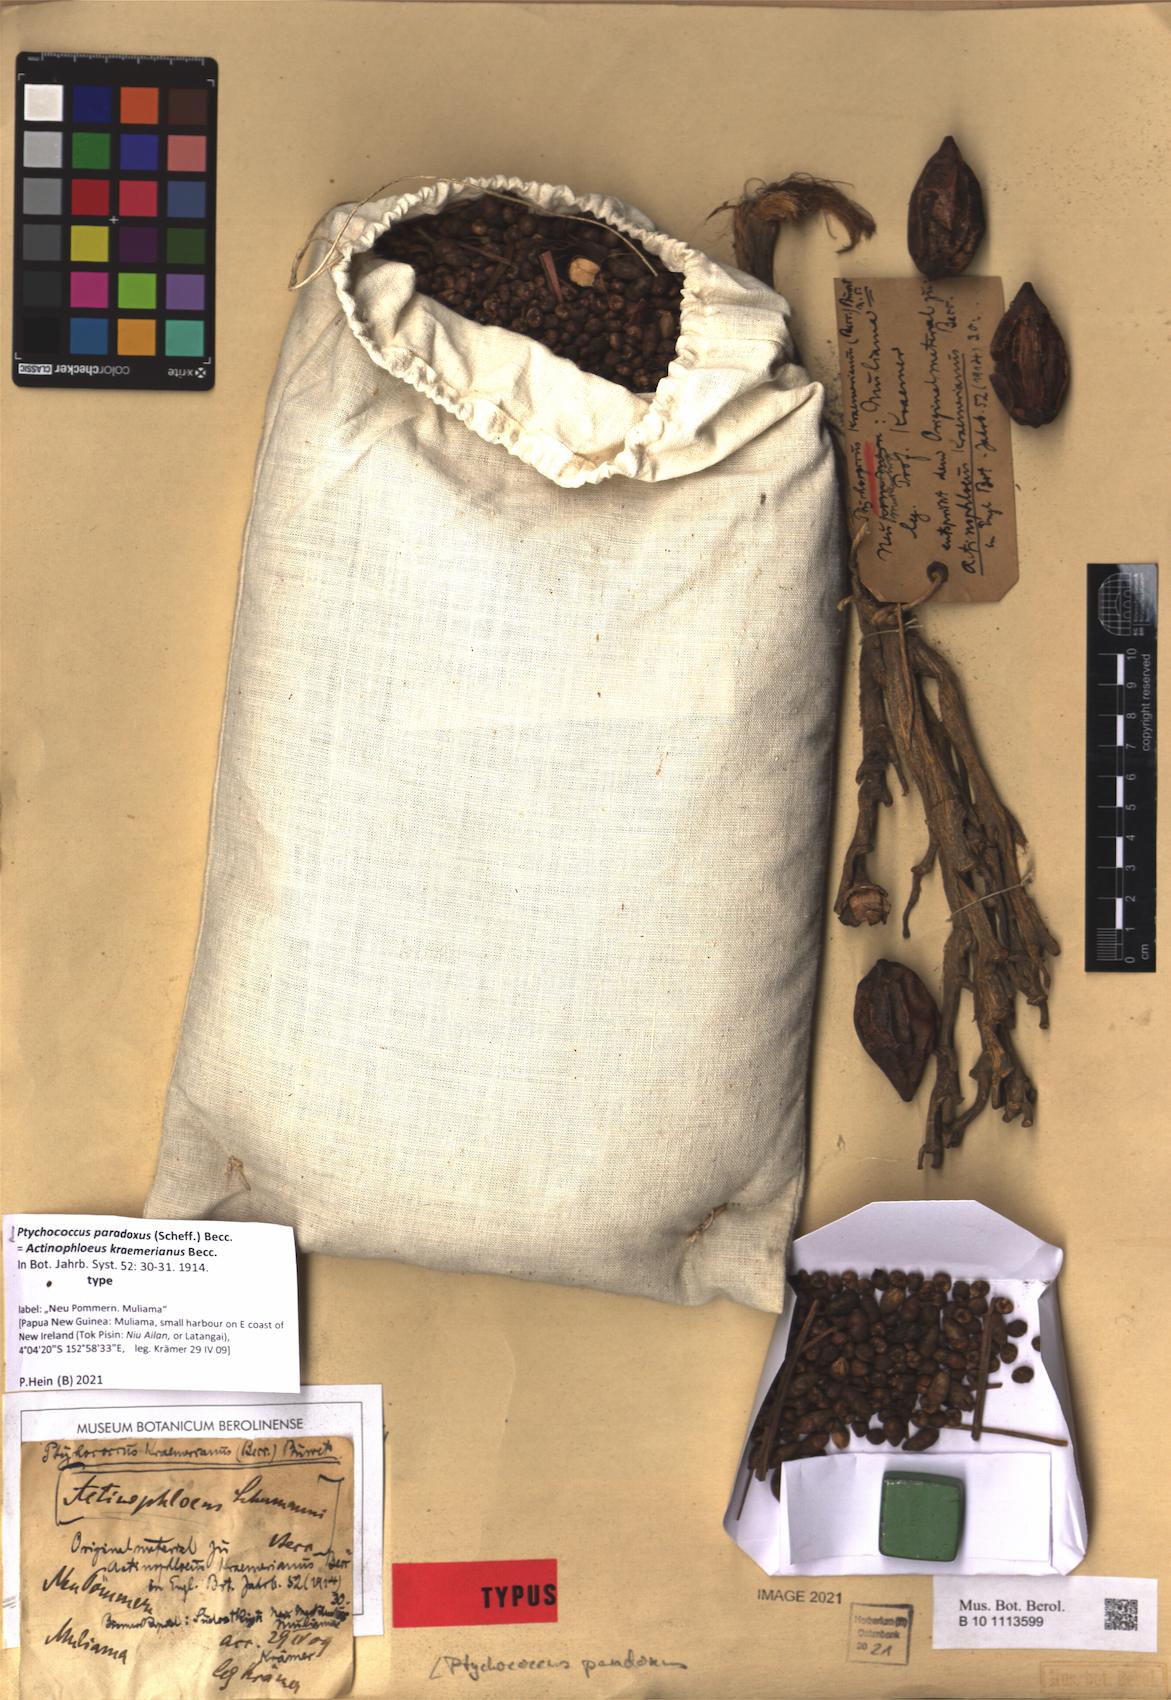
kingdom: Plantae
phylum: Tracheophyta
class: Liliopsida
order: Arecales
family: Arecaceae
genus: Ptychococcus
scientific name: Ptychococcus paradoxus
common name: Wrinkled-fruit palm
